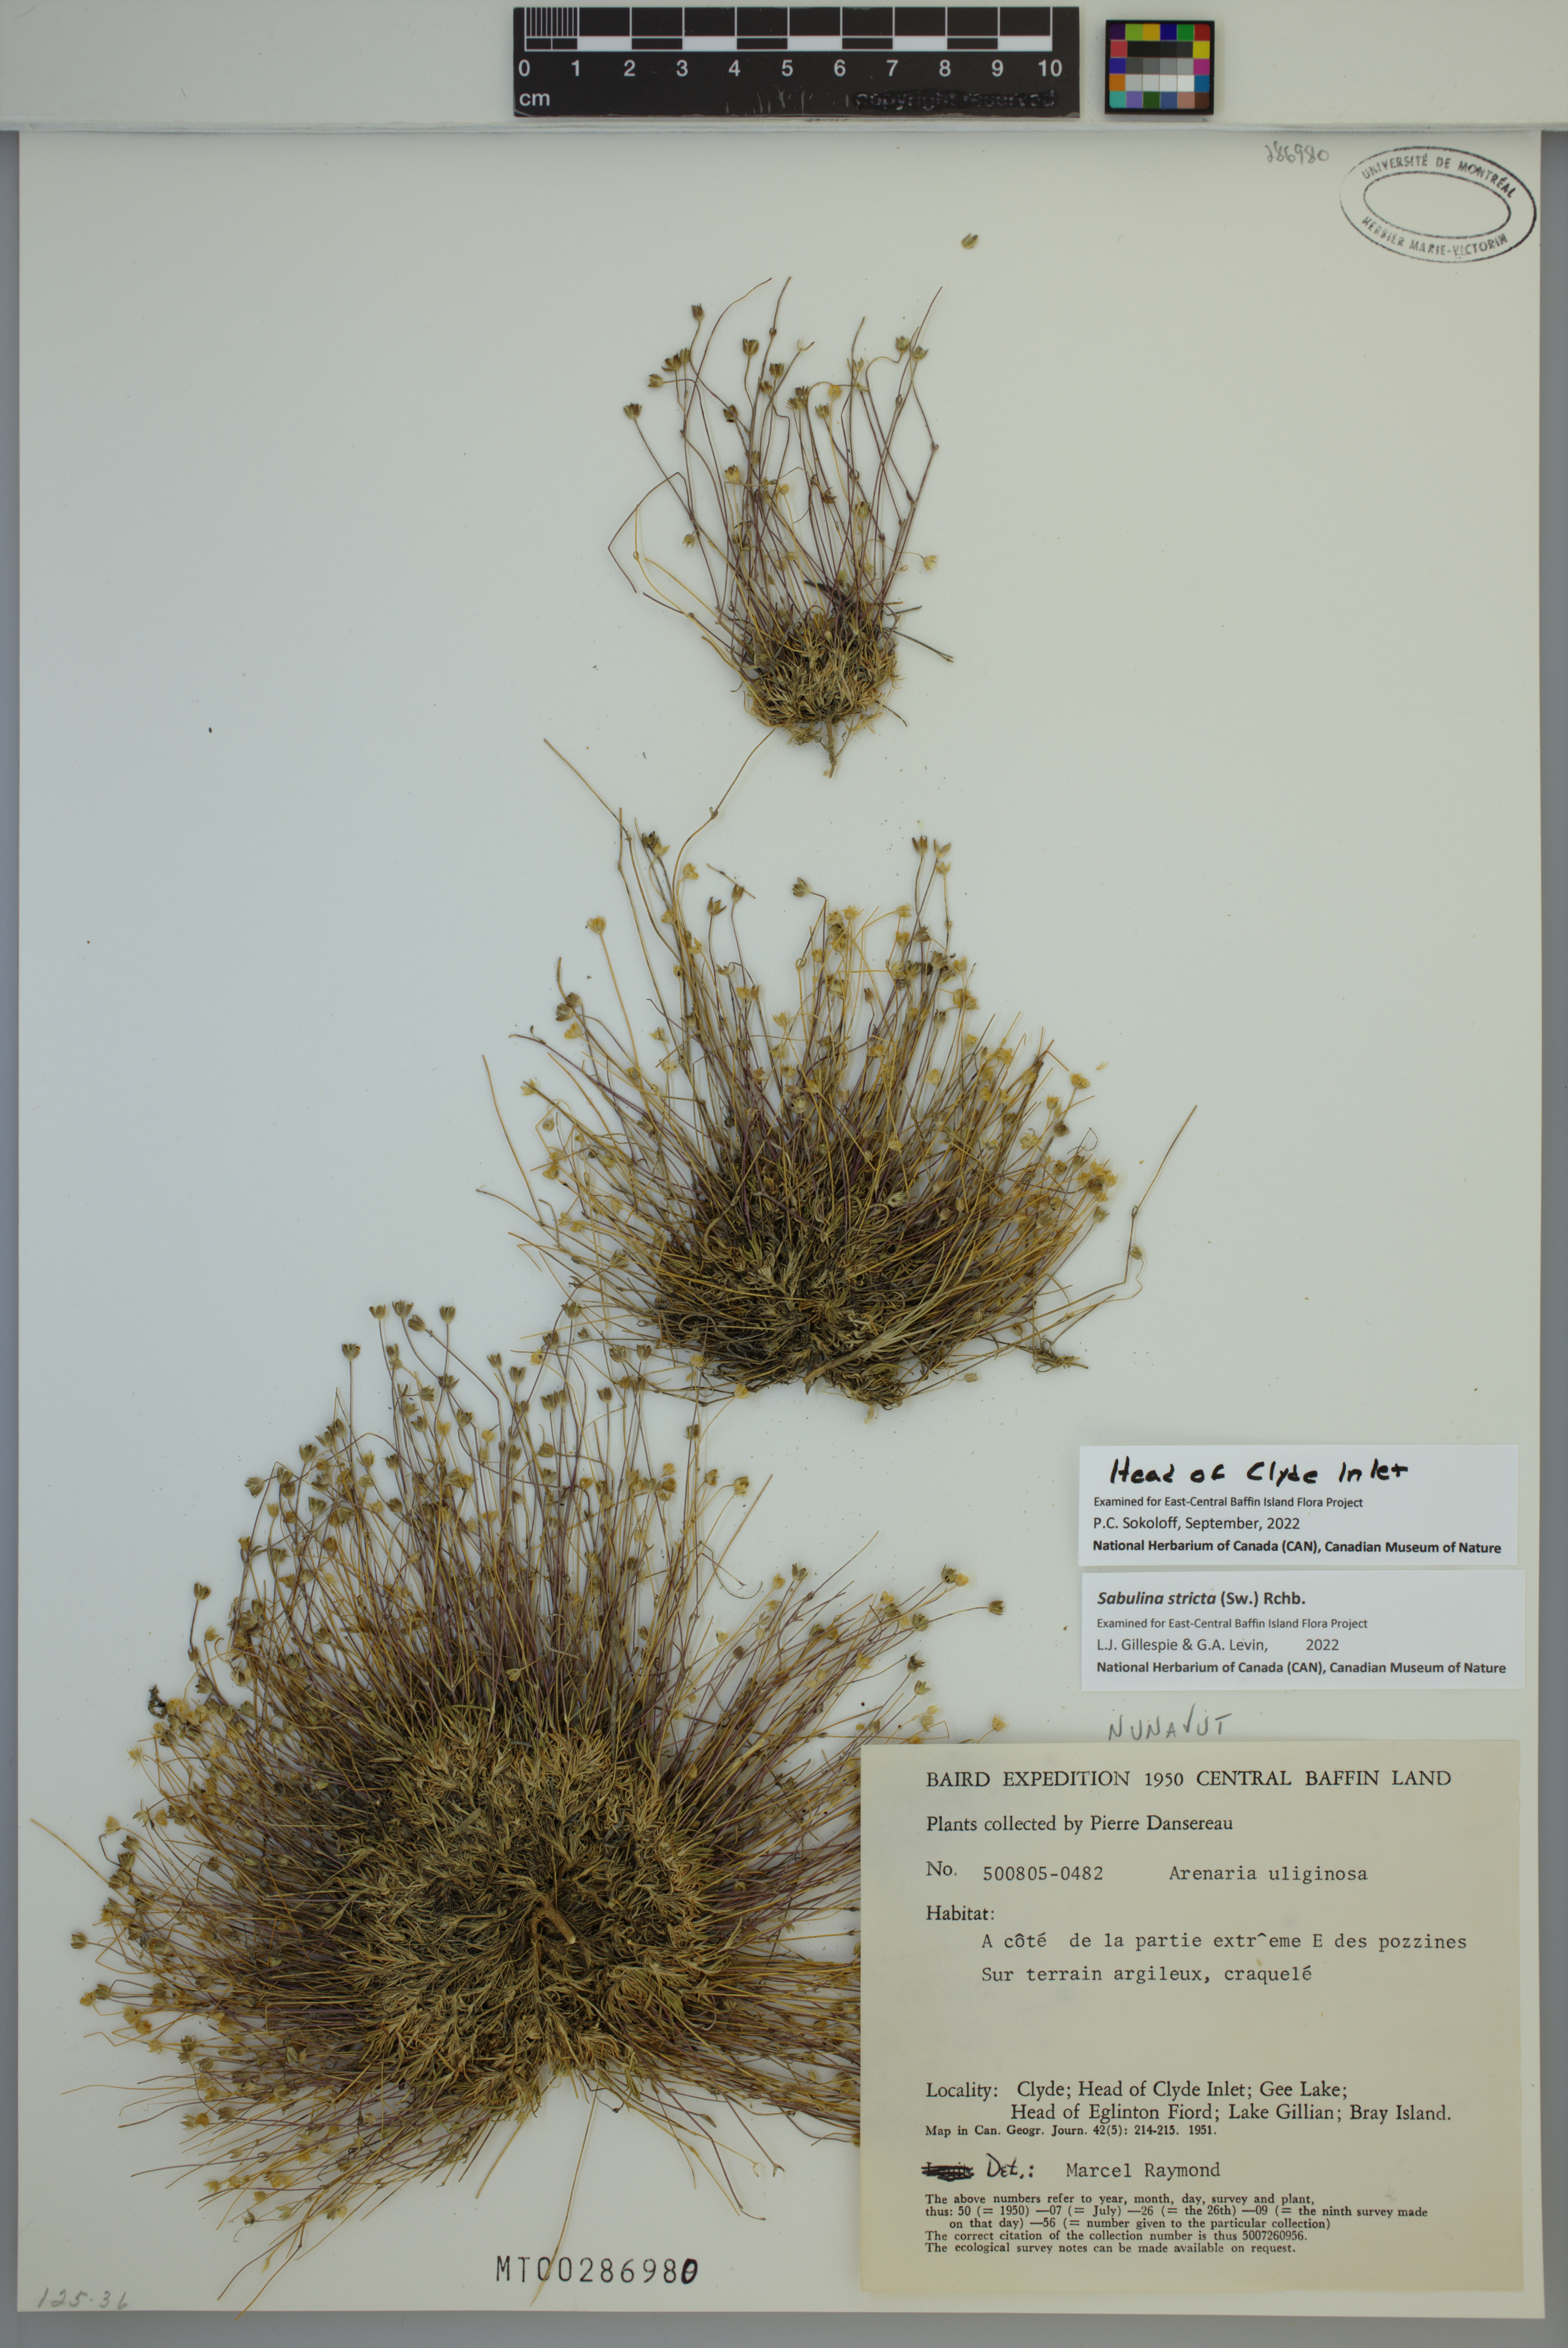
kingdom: Plantae
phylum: Tracheophyta
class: Magnoliopsida
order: Caryophyllales
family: Caryophyllaceae
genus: Sabulina
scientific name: Sabulina stricta
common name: Bog sandwort
